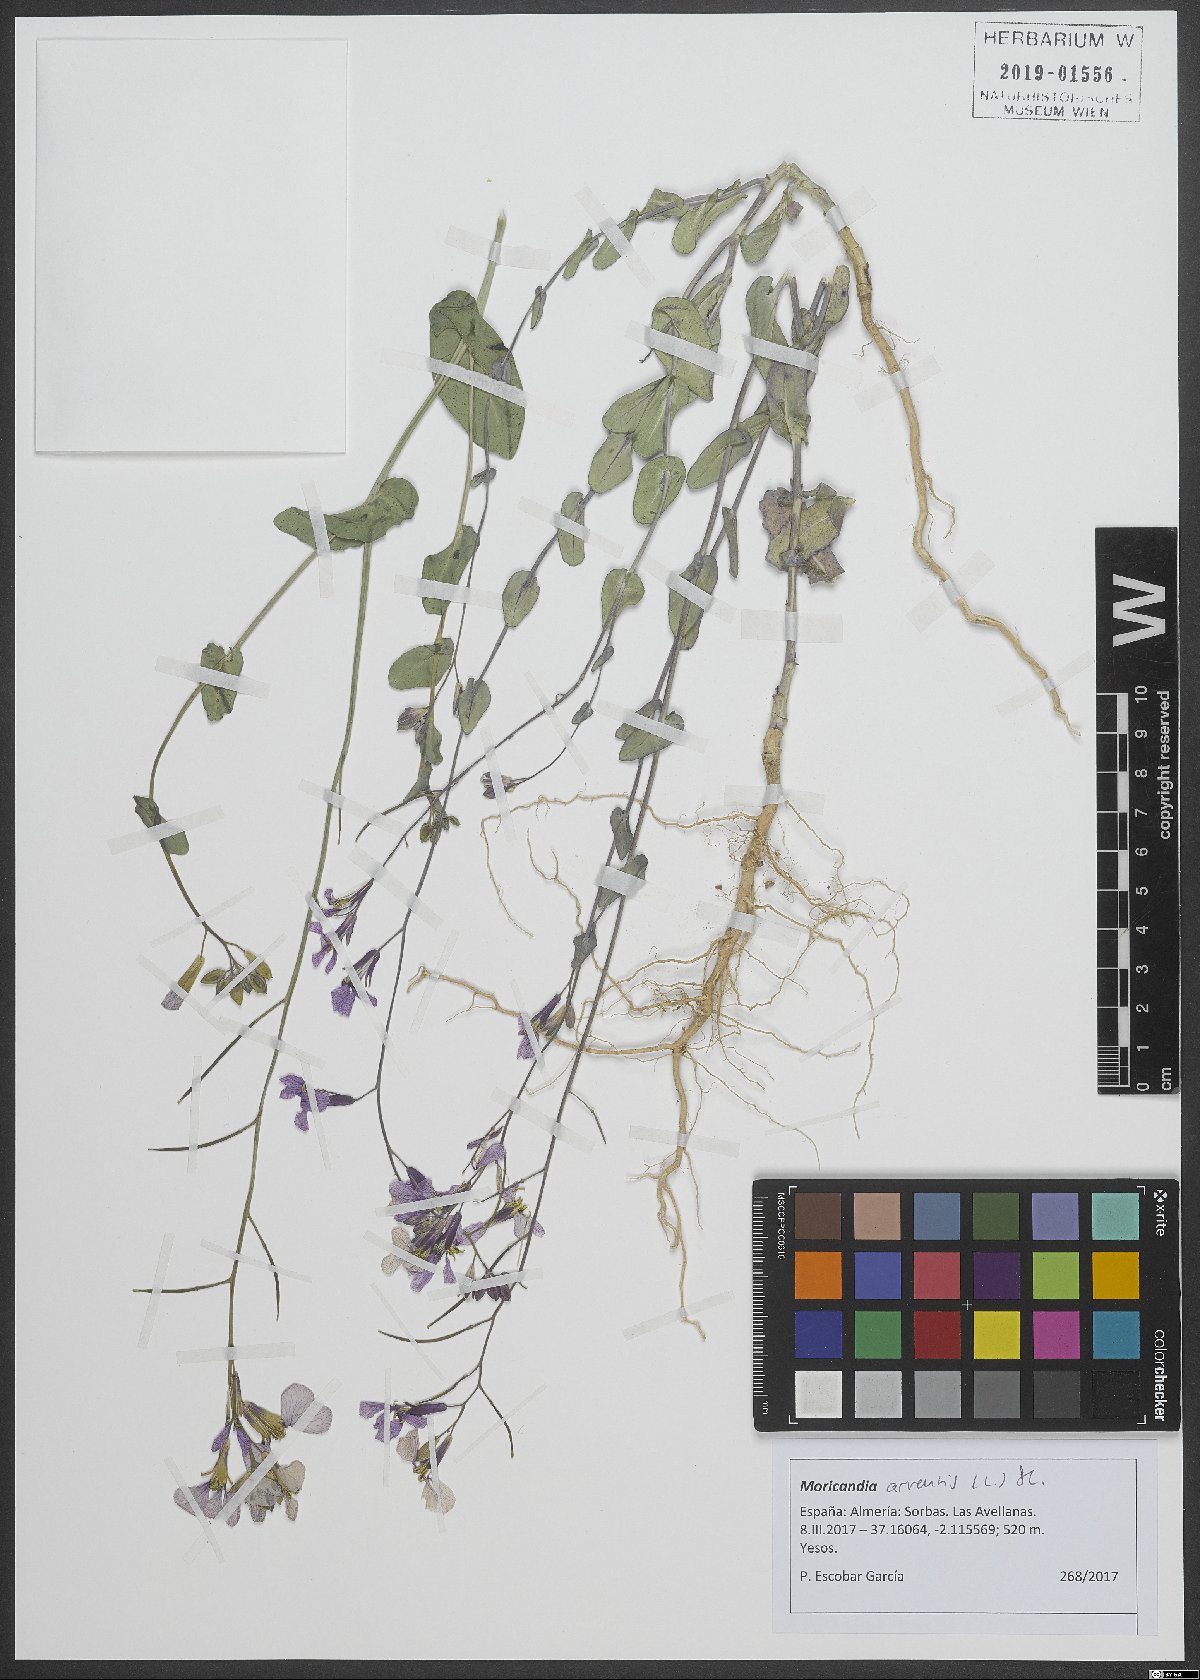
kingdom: Plantae
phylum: Tracheophyta
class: Magnoliopsida
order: Brassicales
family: Brassicaceae
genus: Moricandia
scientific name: Moricandia arvensis
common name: Purple mistress
